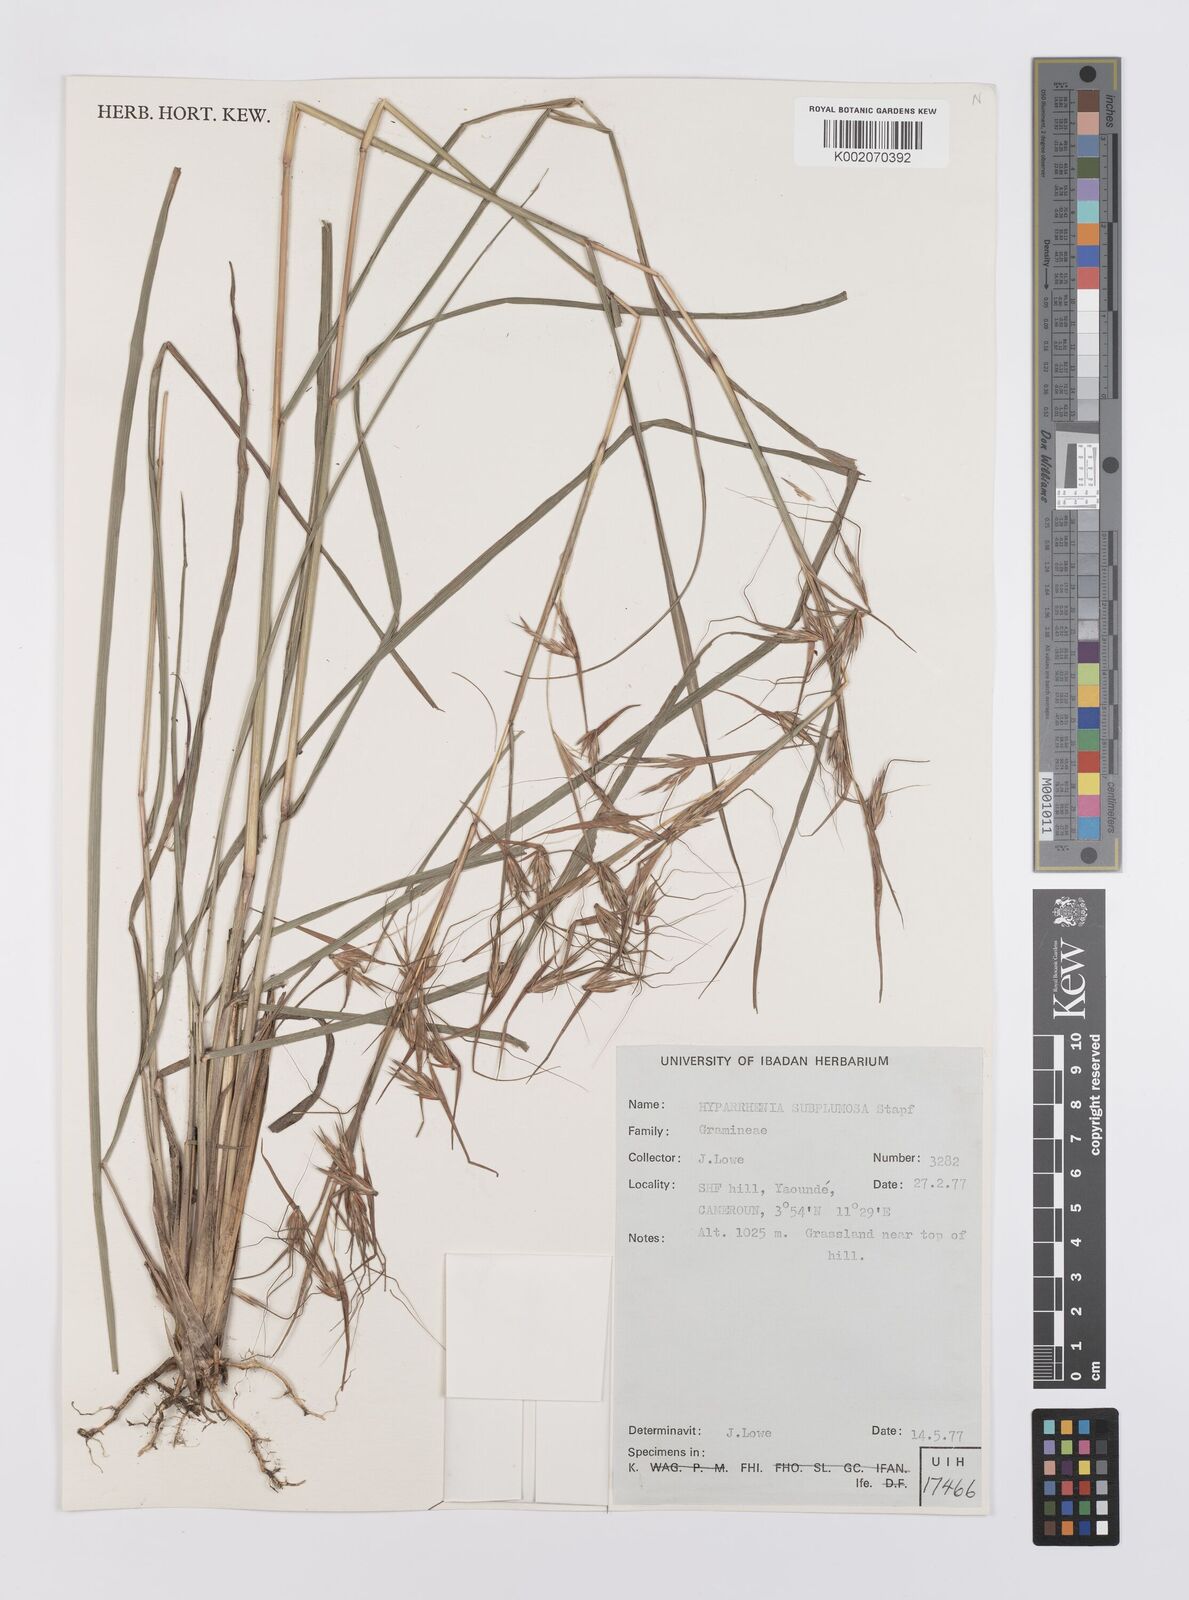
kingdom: Plantae
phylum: Tracheophyta
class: Liliopsida
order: Poales
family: Poaceae
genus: Hyparrhenia
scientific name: Hyparrhenia subplumosa
